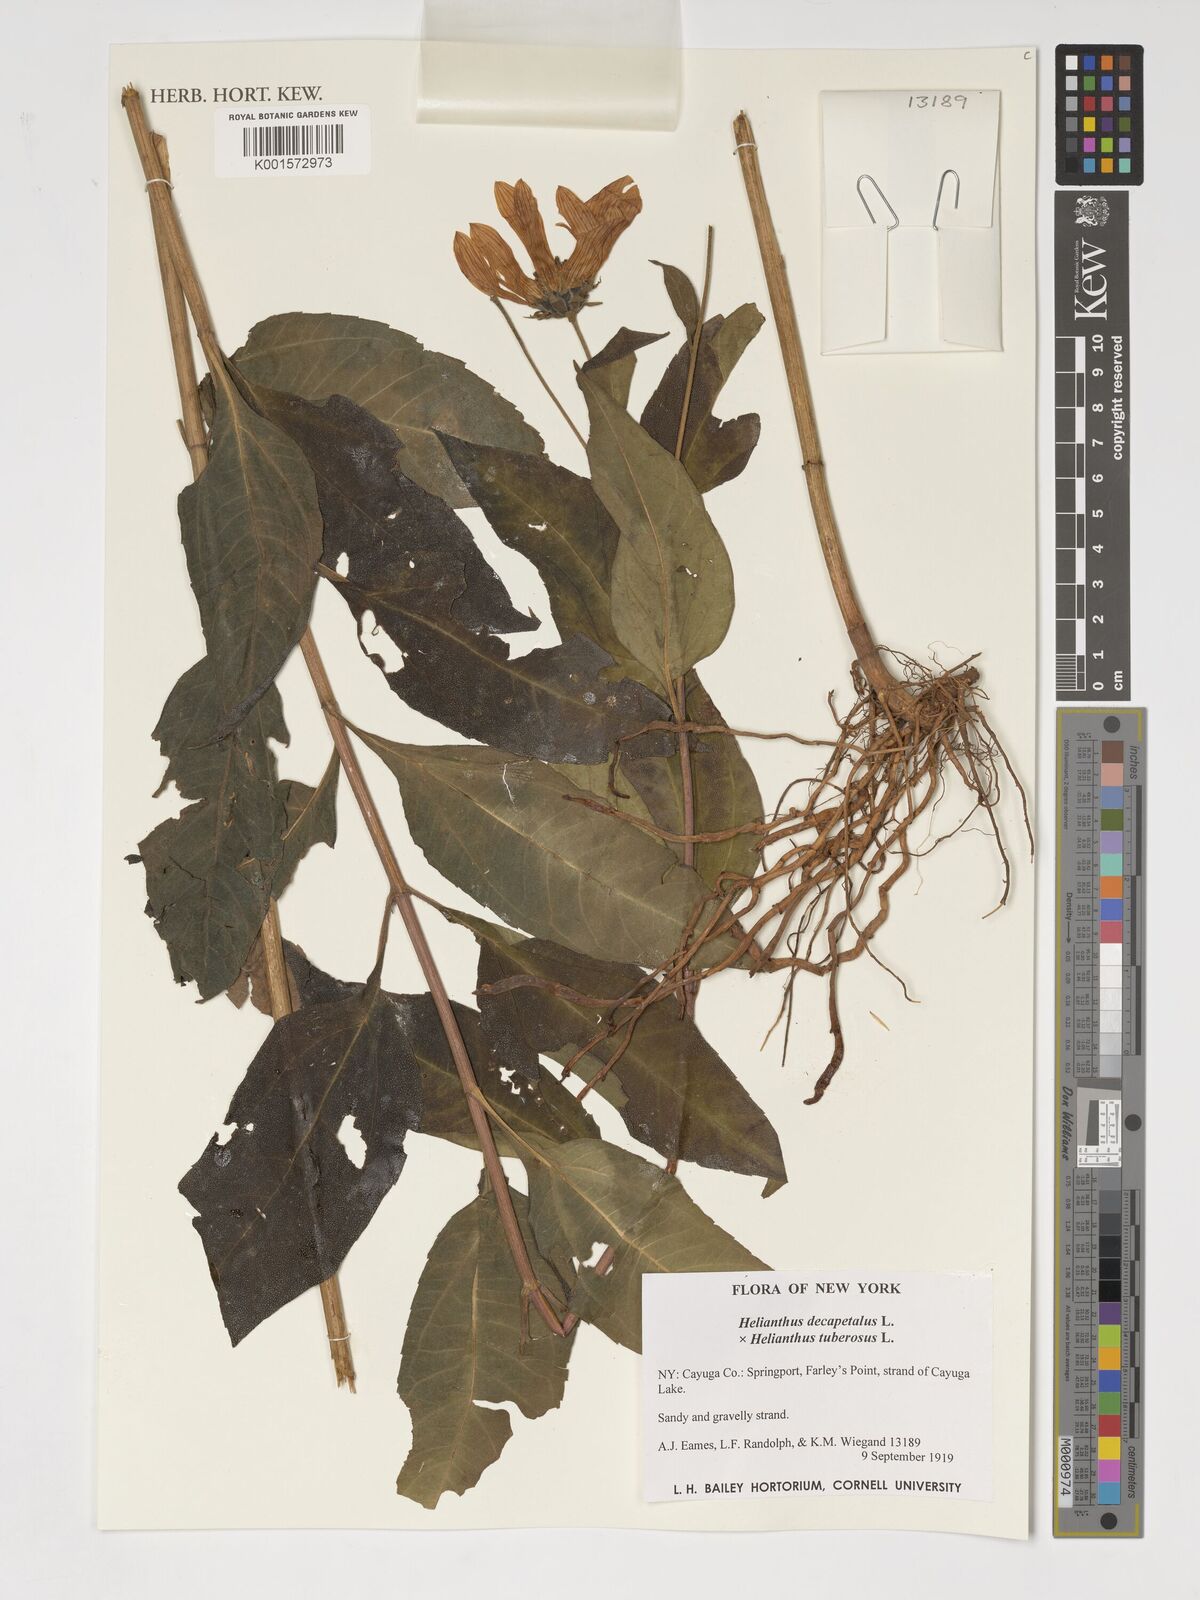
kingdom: Plantae
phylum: Tracheophyta
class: Magnoliopsida
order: Asterales
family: Asteraceae
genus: Helianthus
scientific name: Helianthus decapetalus
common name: Thin-leaved sunflower
